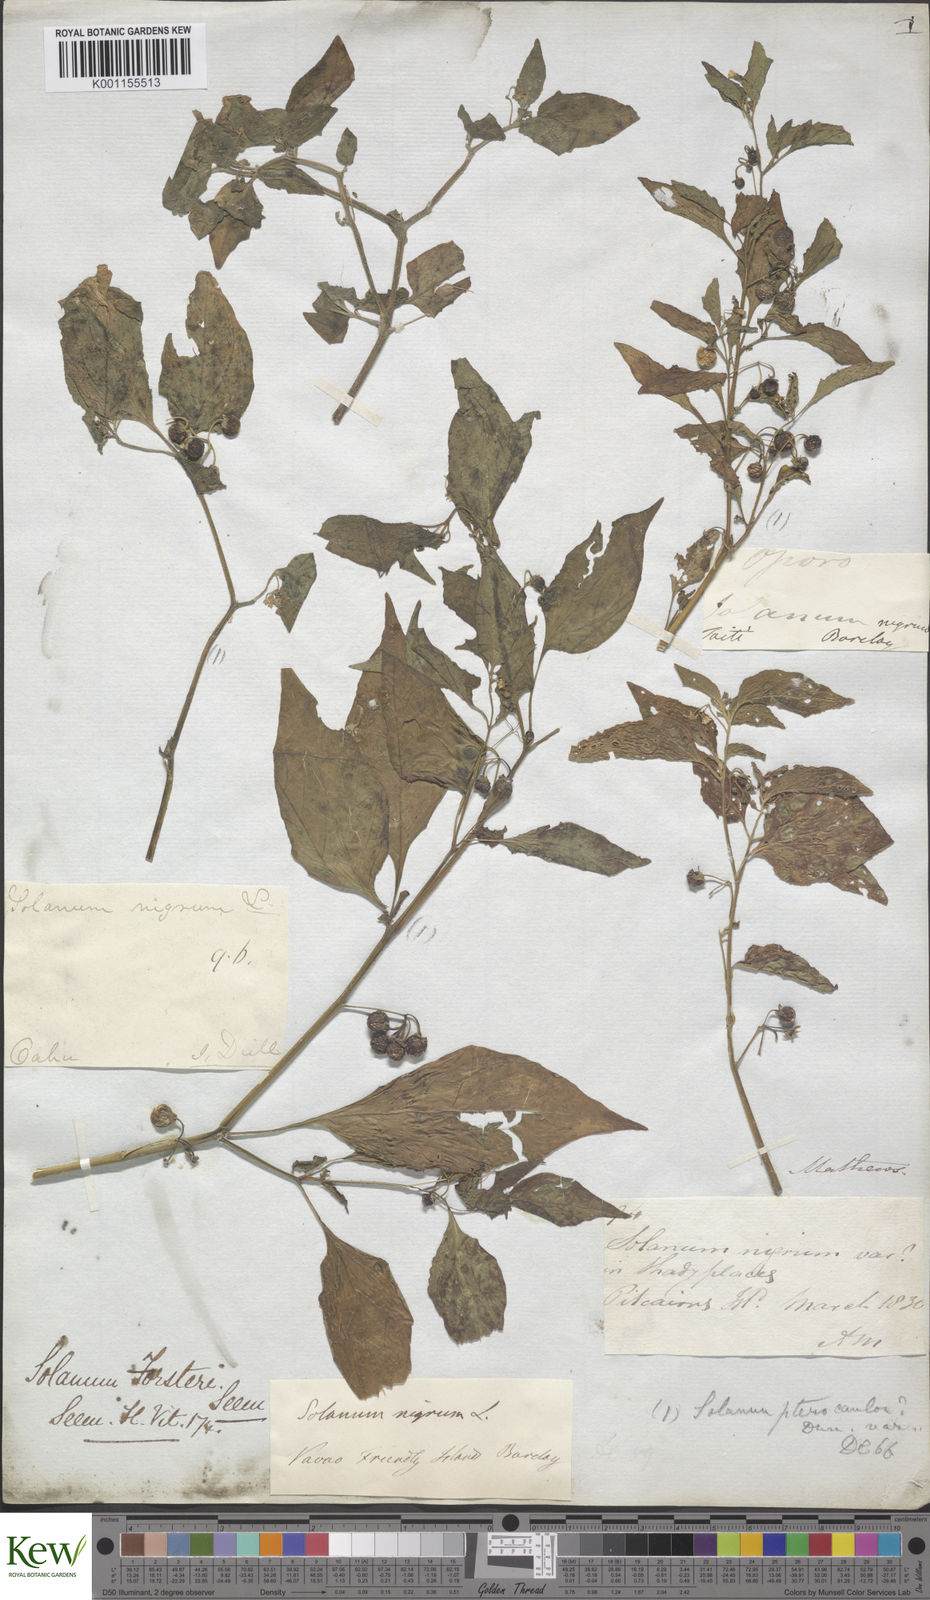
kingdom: Plantae
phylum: Tracheophyta
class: Magnoliopsida
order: Solanales
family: Solanaceae
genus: Solanum
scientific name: Solanum opacum
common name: Green-berry nightshade
